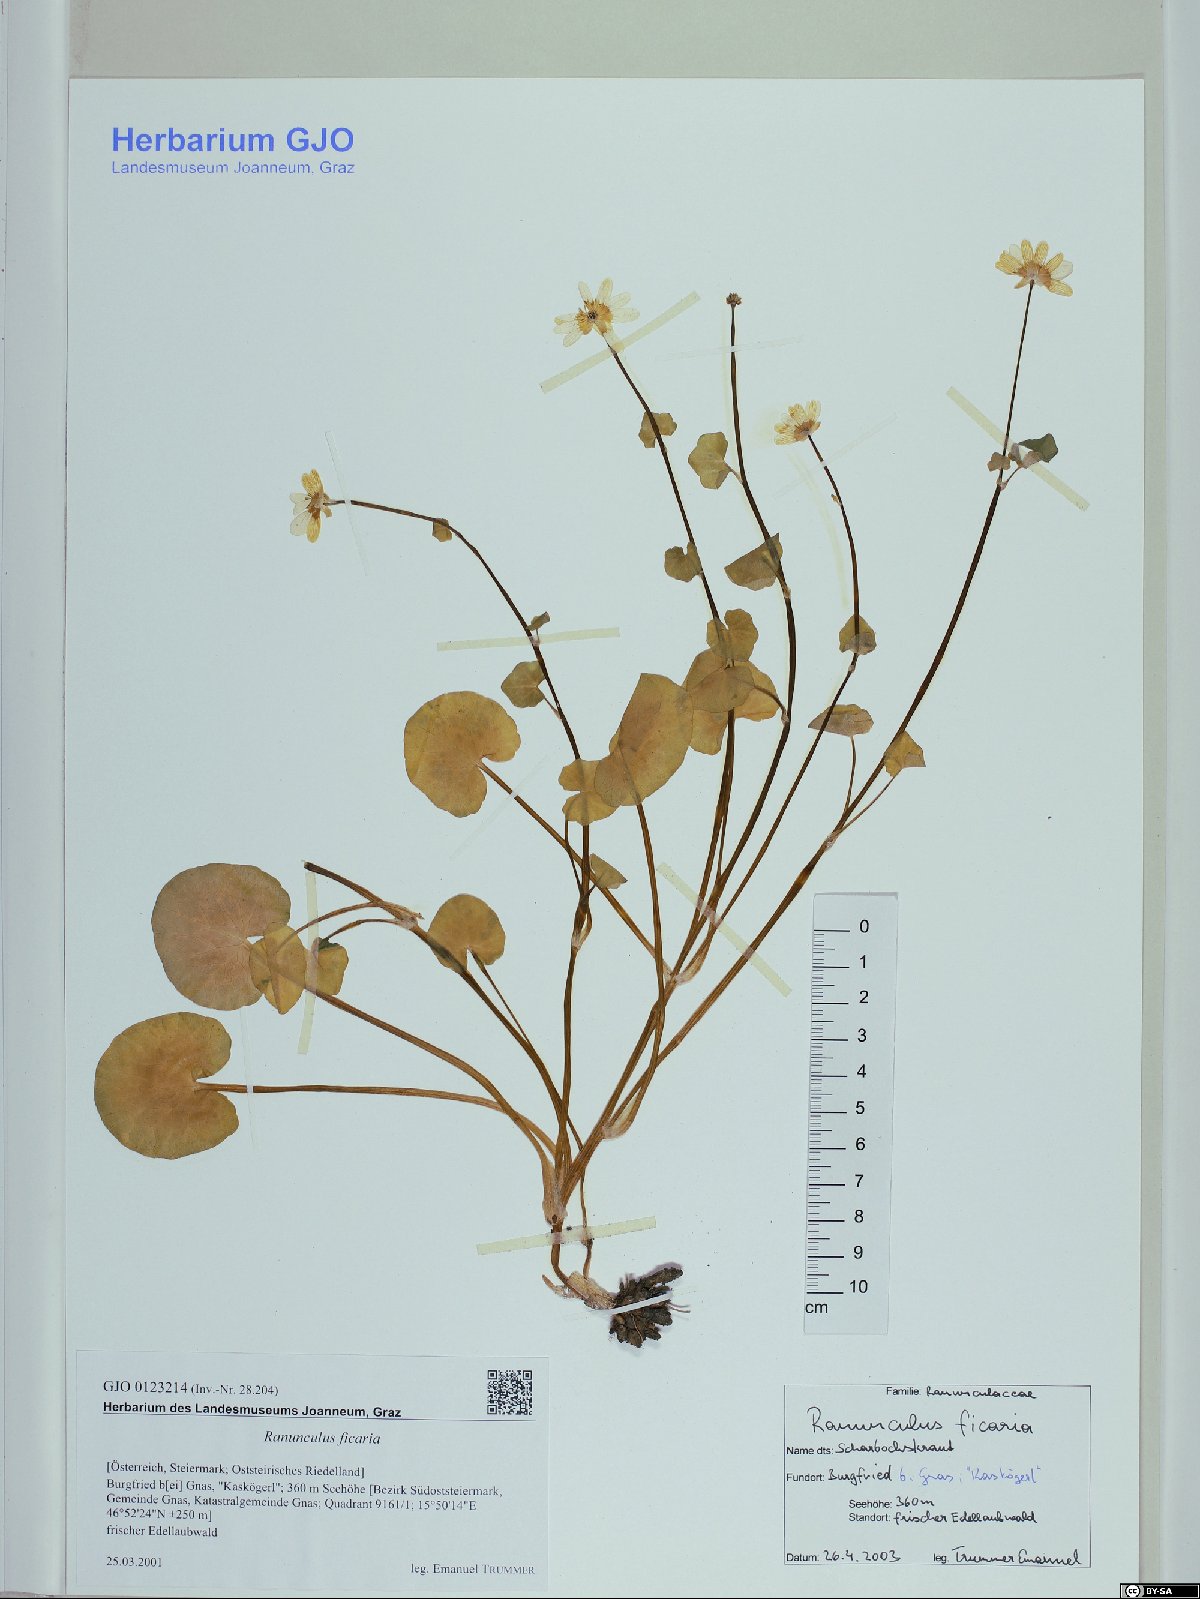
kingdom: Plantae
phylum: Tracheophyta
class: Magnoliopsida
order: Ranunculales
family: Ranunculaceae
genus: Ficaria
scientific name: Ficaria verna
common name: Lesser celandine
